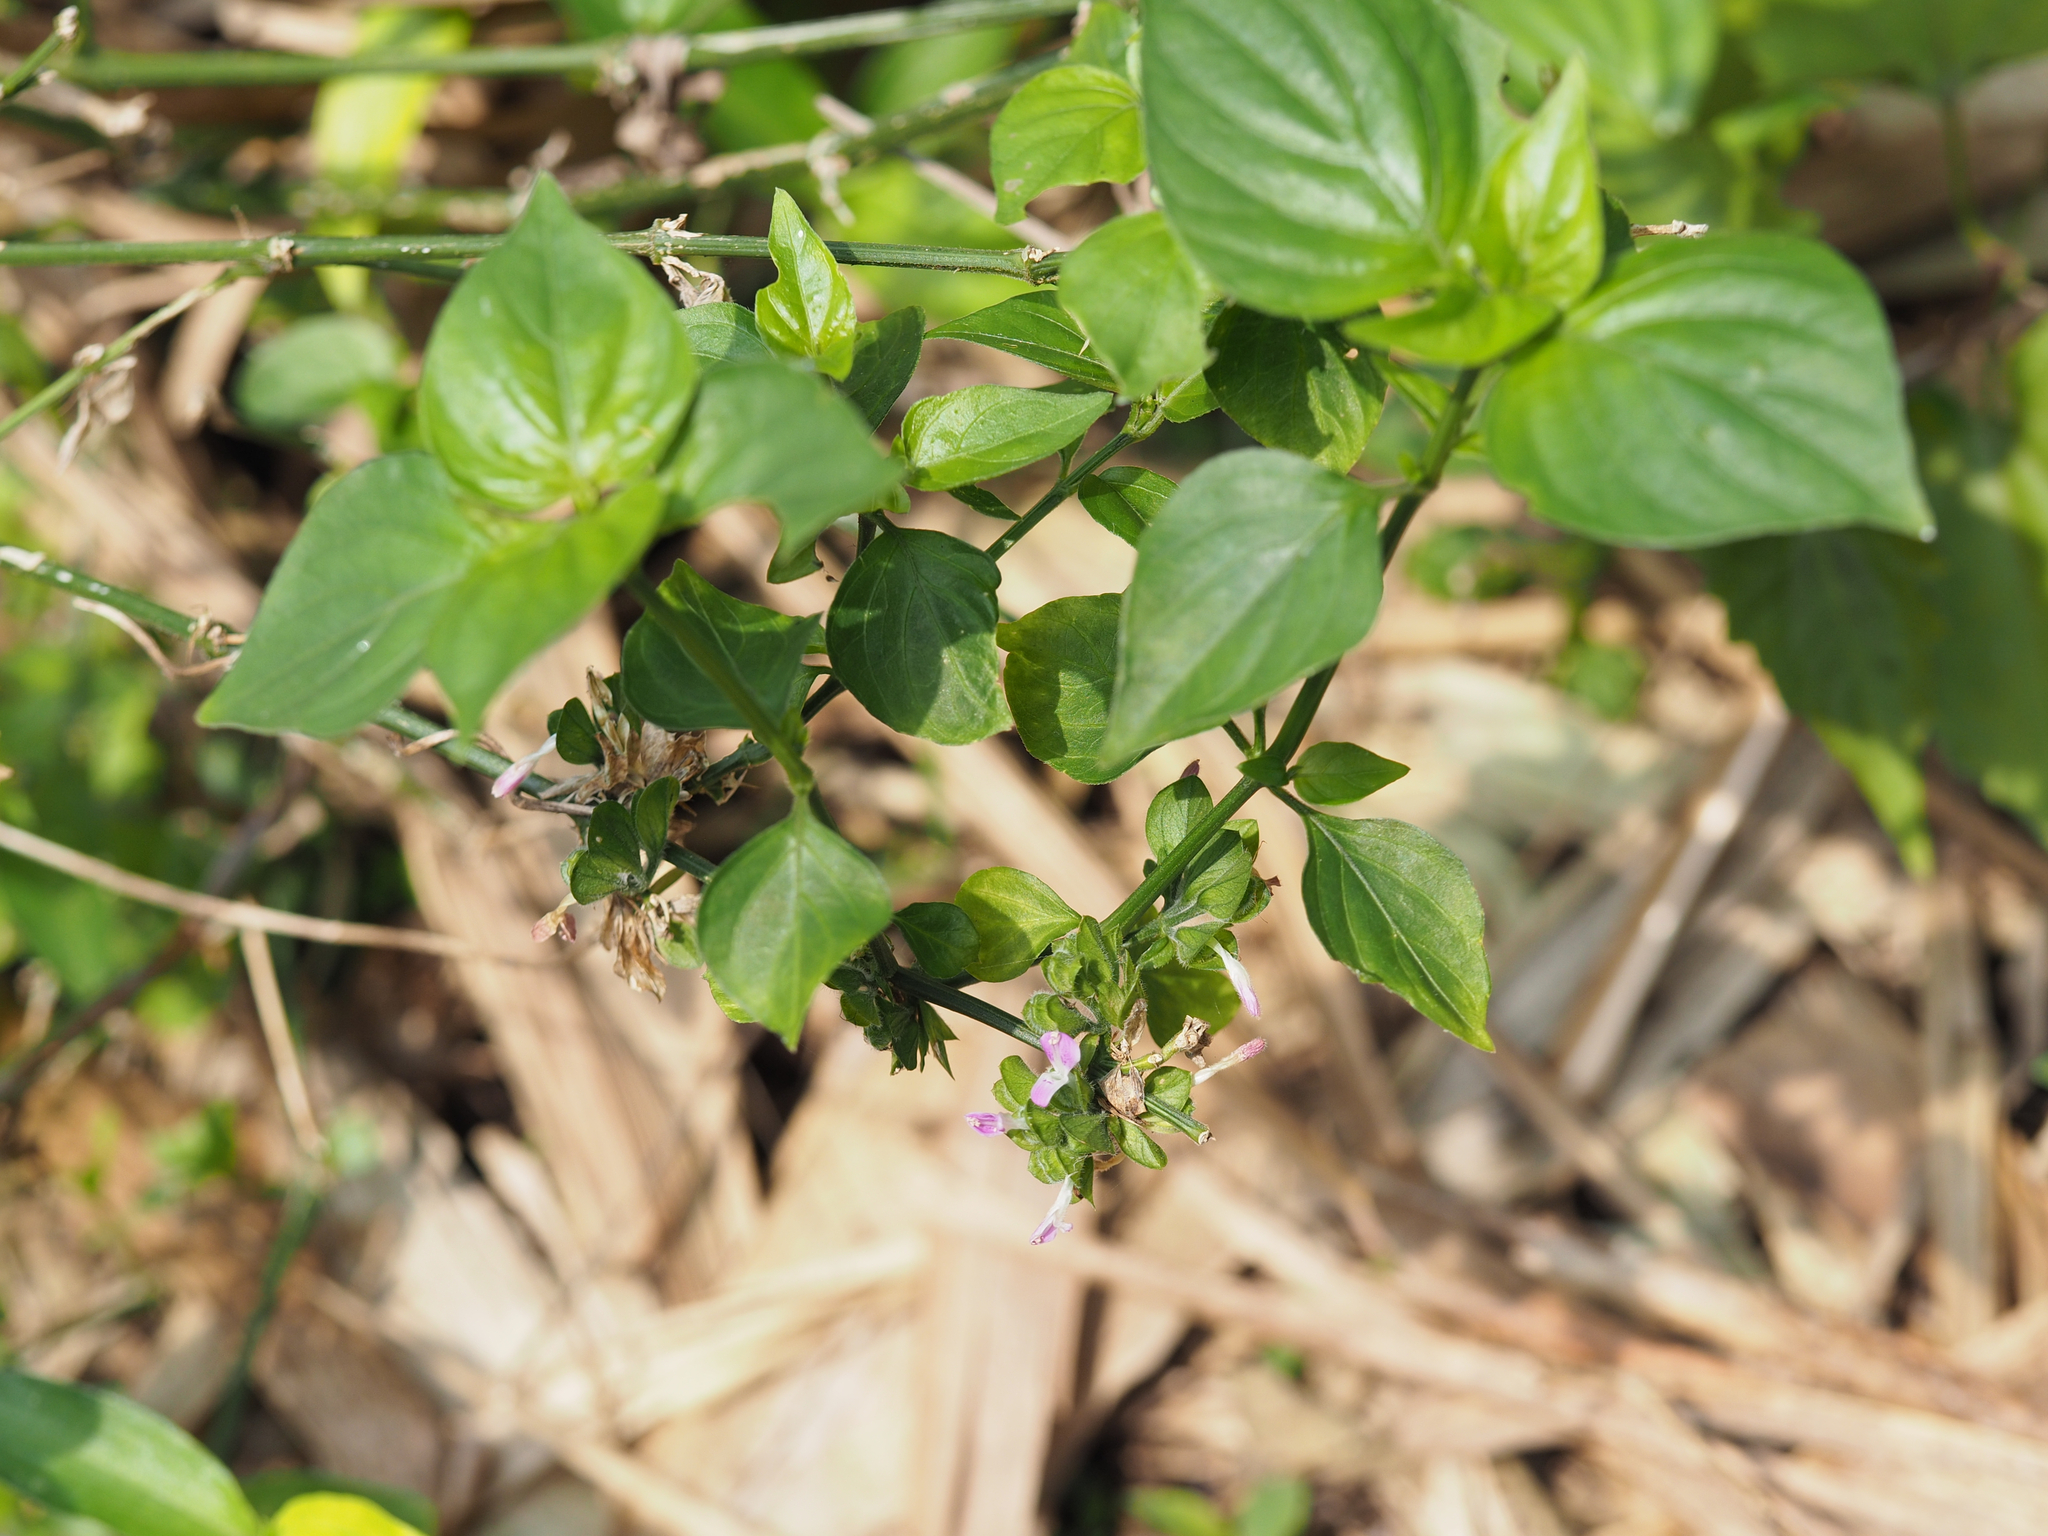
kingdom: Plantae
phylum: Tracheophyta
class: Magnoliopsida
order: Lamiales
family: Acanthaceae
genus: Dicliptera
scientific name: Dicliptera chinensis
